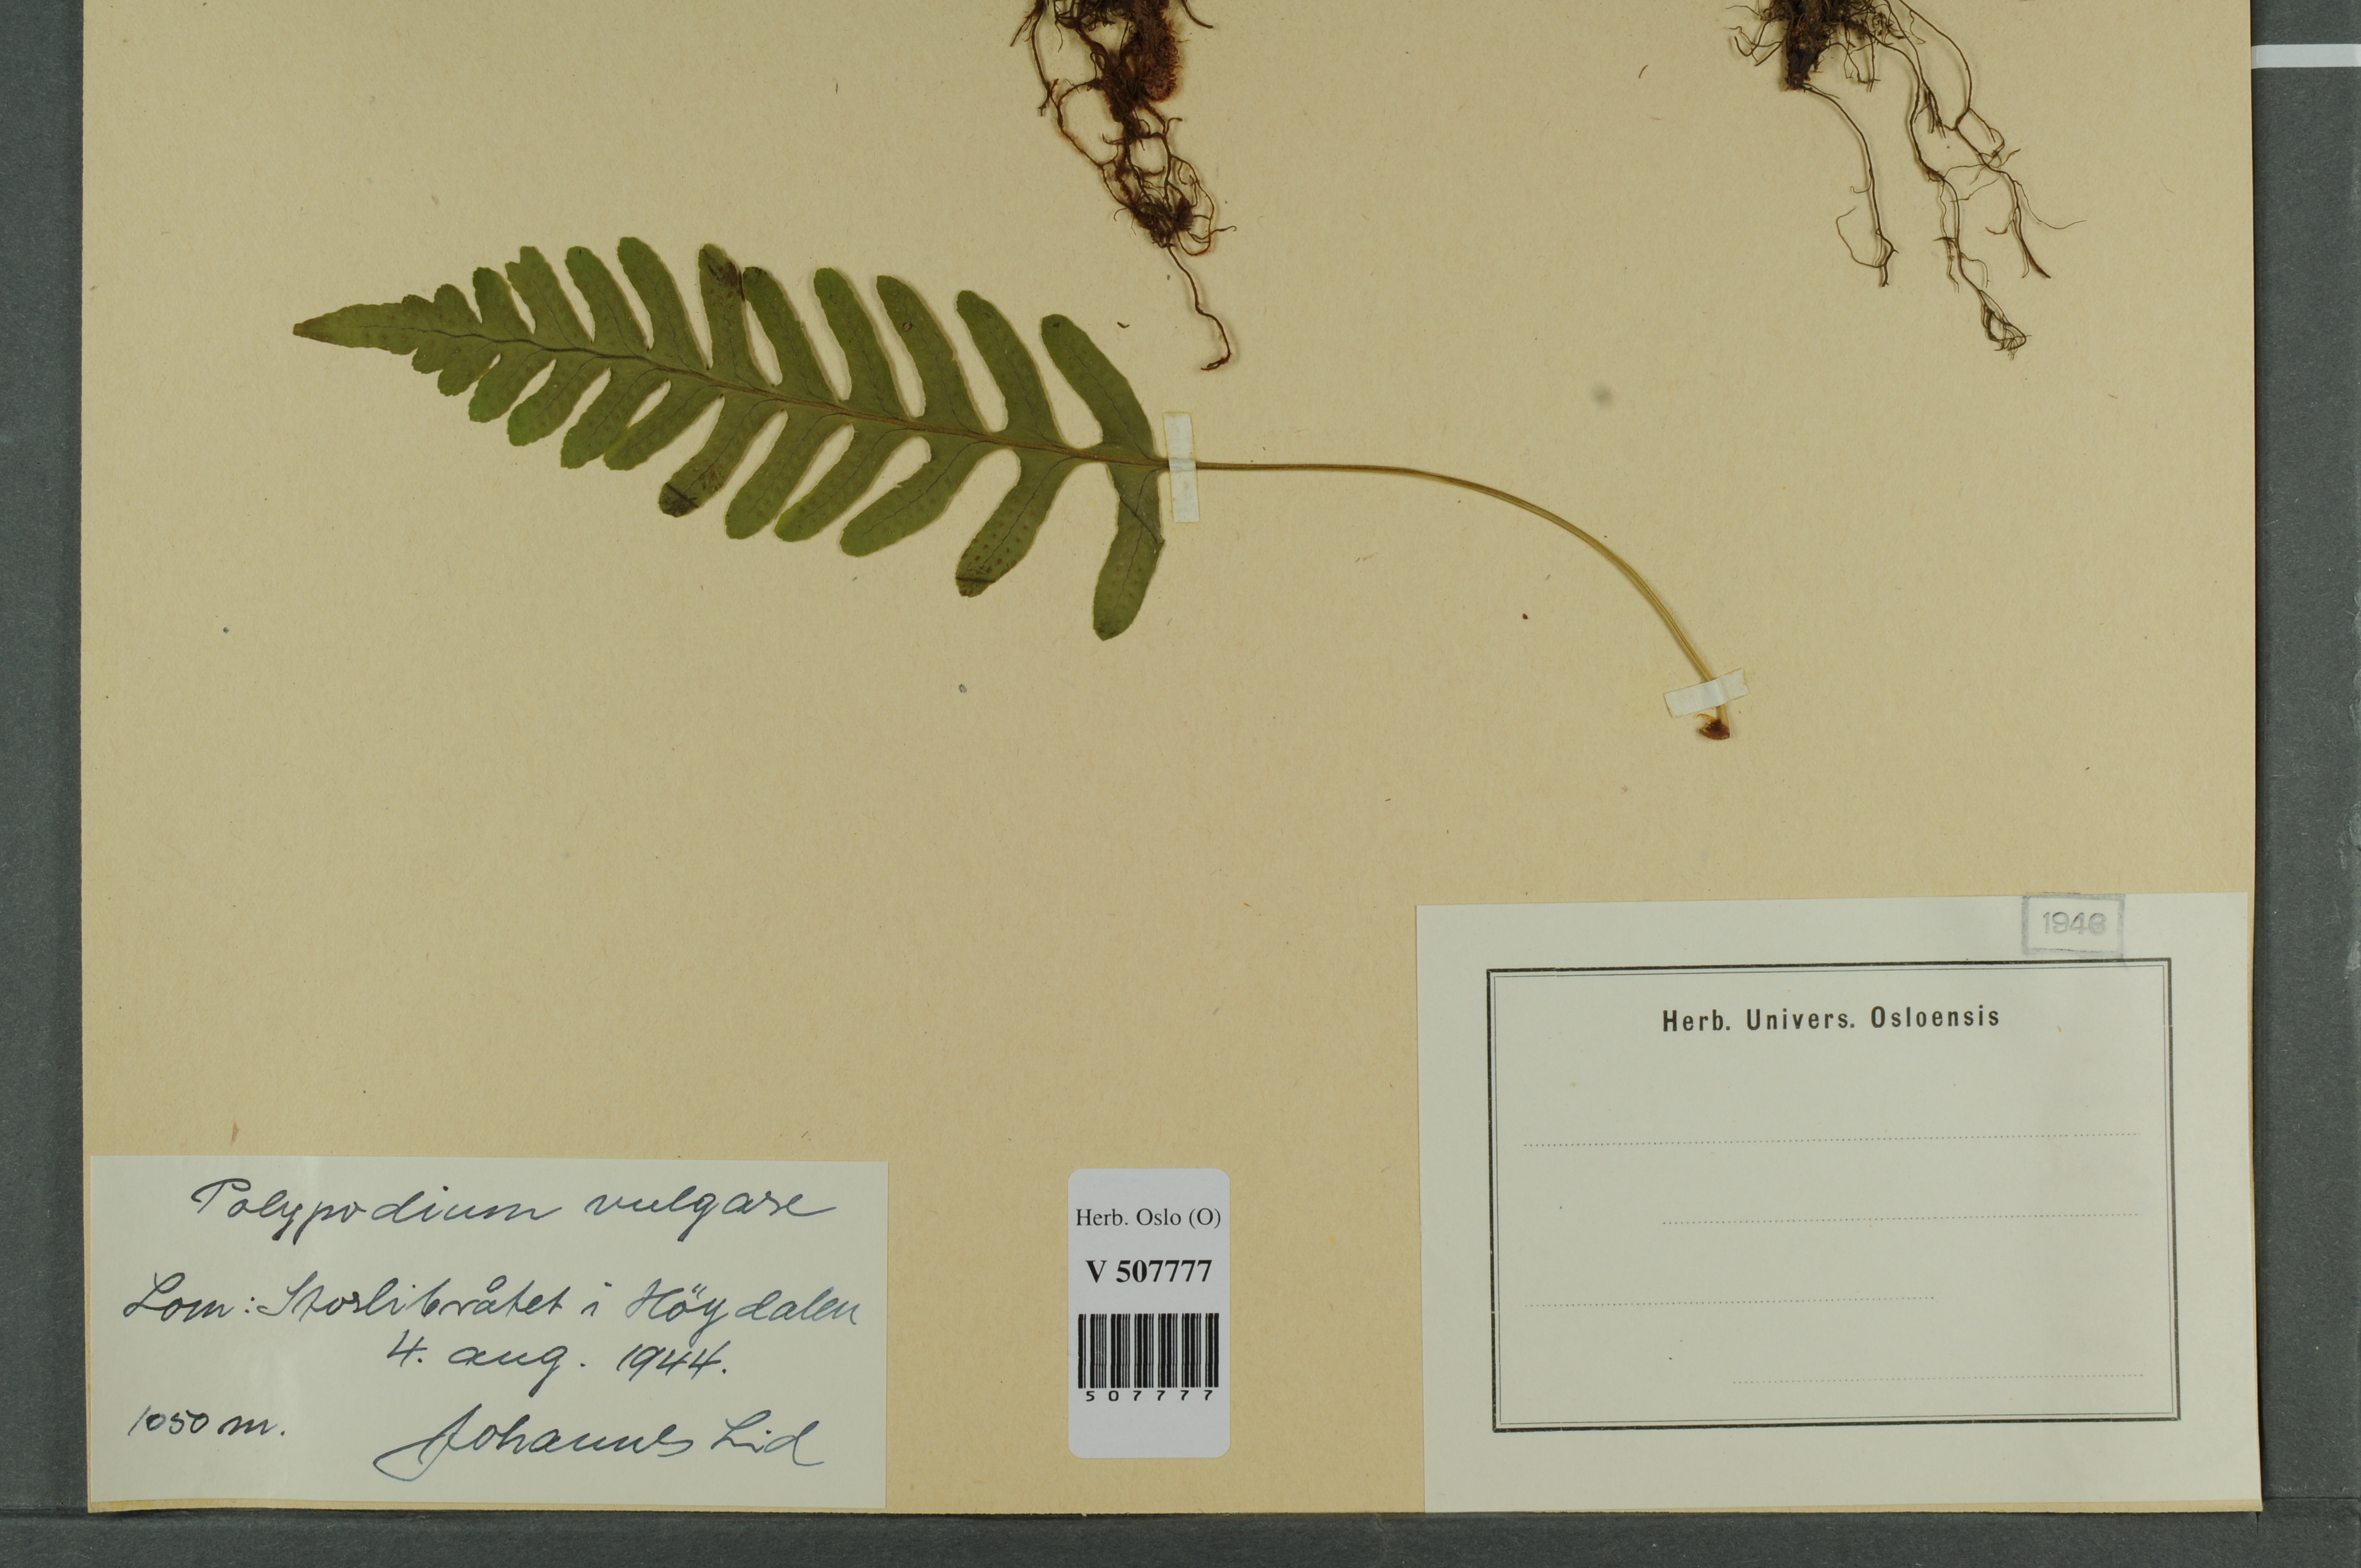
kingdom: Plantae
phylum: Tracheophyta
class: Polypodiopsida
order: Polypodiales
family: Polypodiaceae
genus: Polypodium
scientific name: Polypodium vulgare
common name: Common polypody
